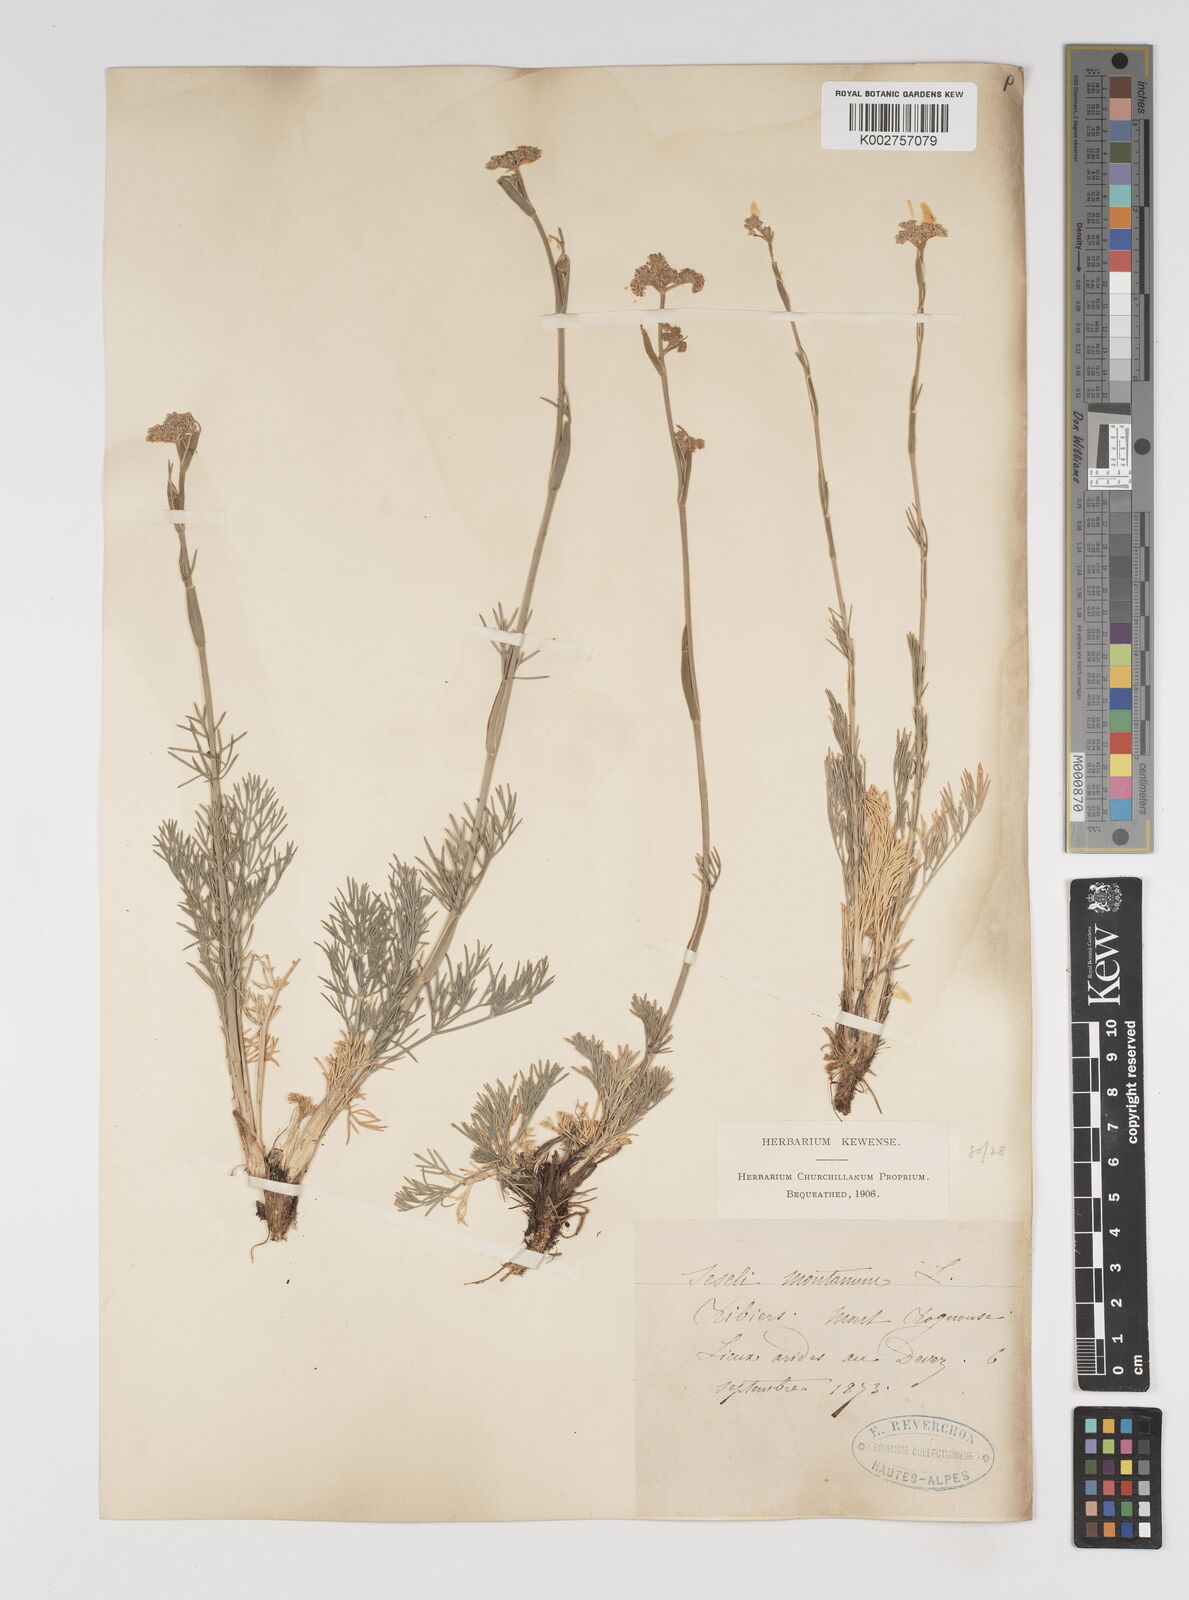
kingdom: Plantae
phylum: Tracheophyta
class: Magnoliopsida
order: Apiales
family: Apiaceae
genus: Seseli
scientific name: Seseli montanum
